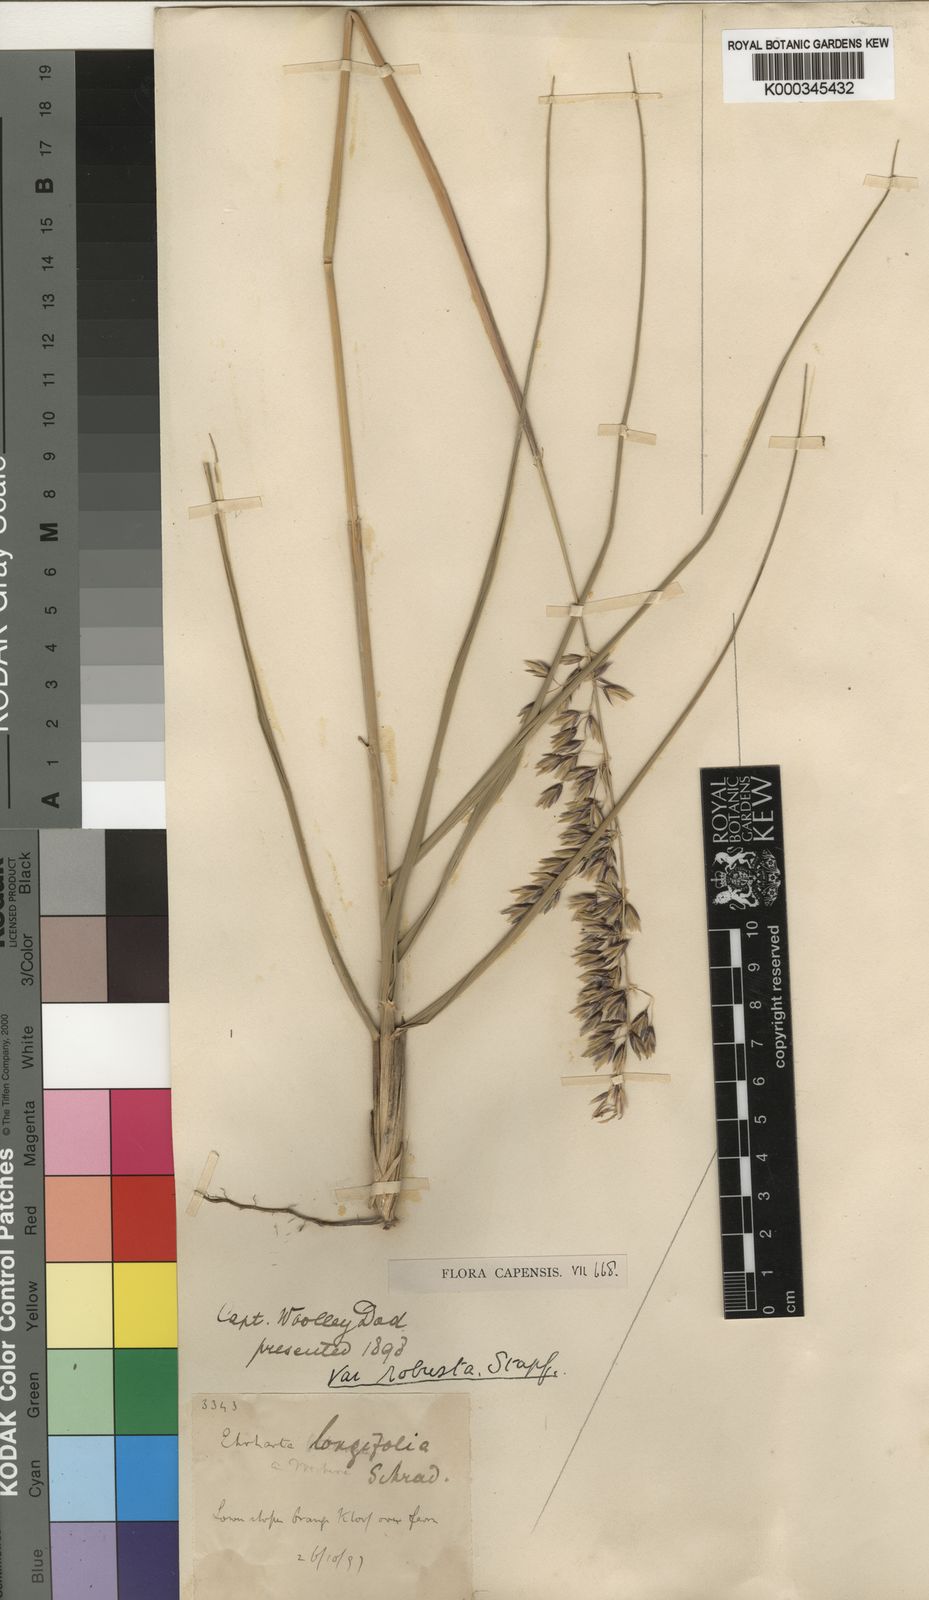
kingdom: Plantae
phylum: Tracheophyta
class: Liliopsida
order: Poales
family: Poaceae
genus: Ehrharta
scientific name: Ehrharta longifolia
